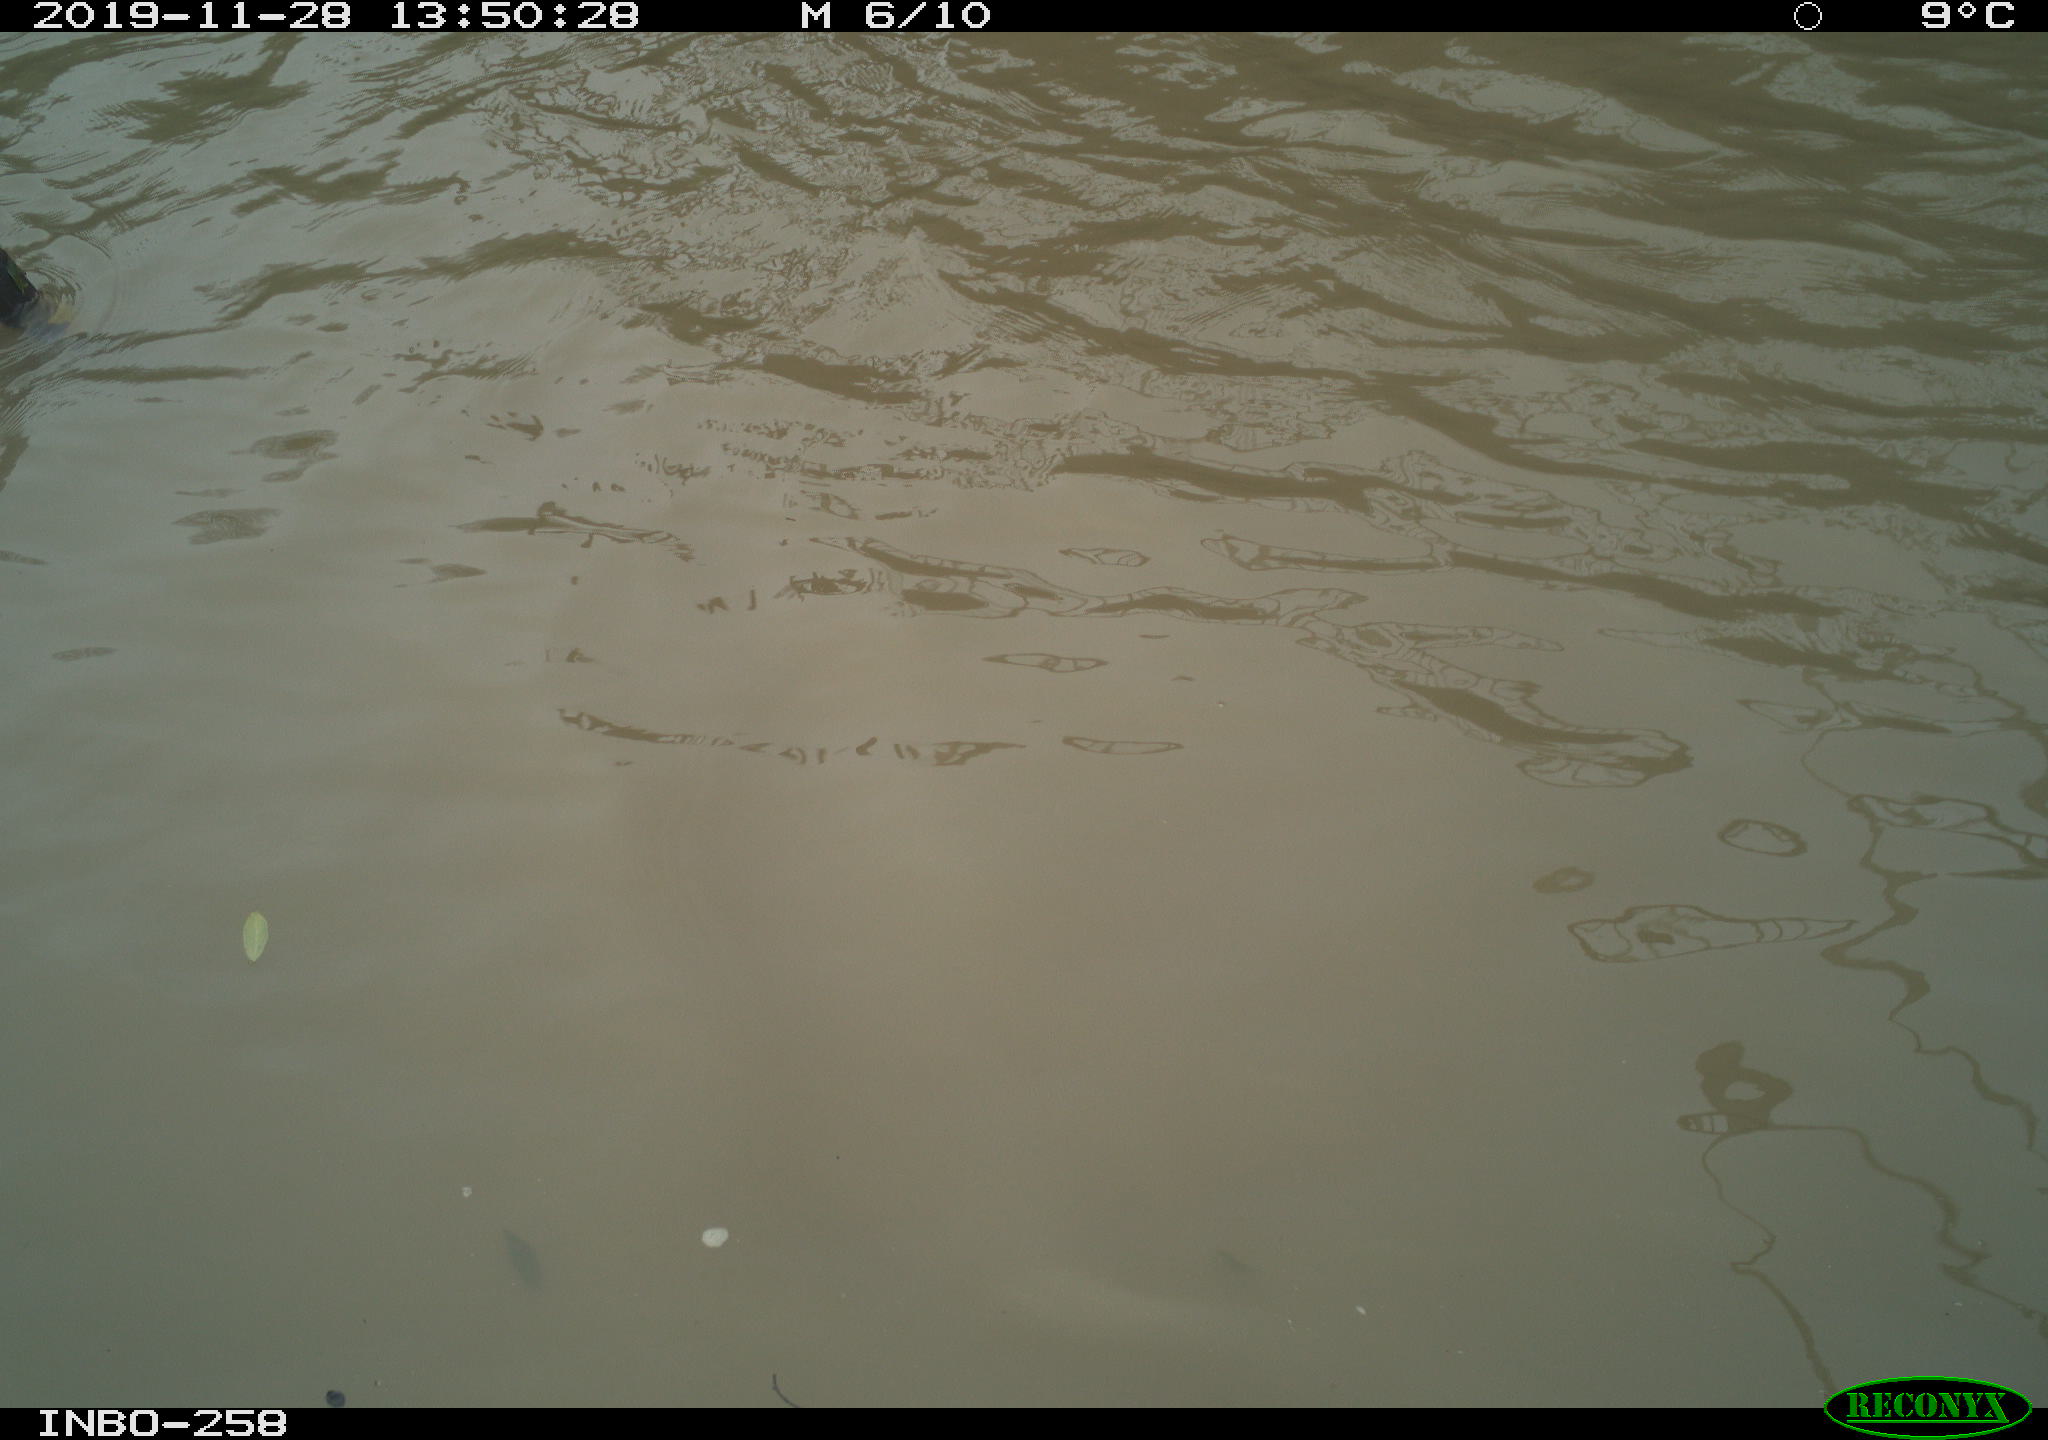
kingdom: Animalia
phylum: Chordata
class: Aves
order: Gruiformes
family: Rallidae
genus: Gallinula
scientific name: Gallinula chloropus
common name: Common moorhen
